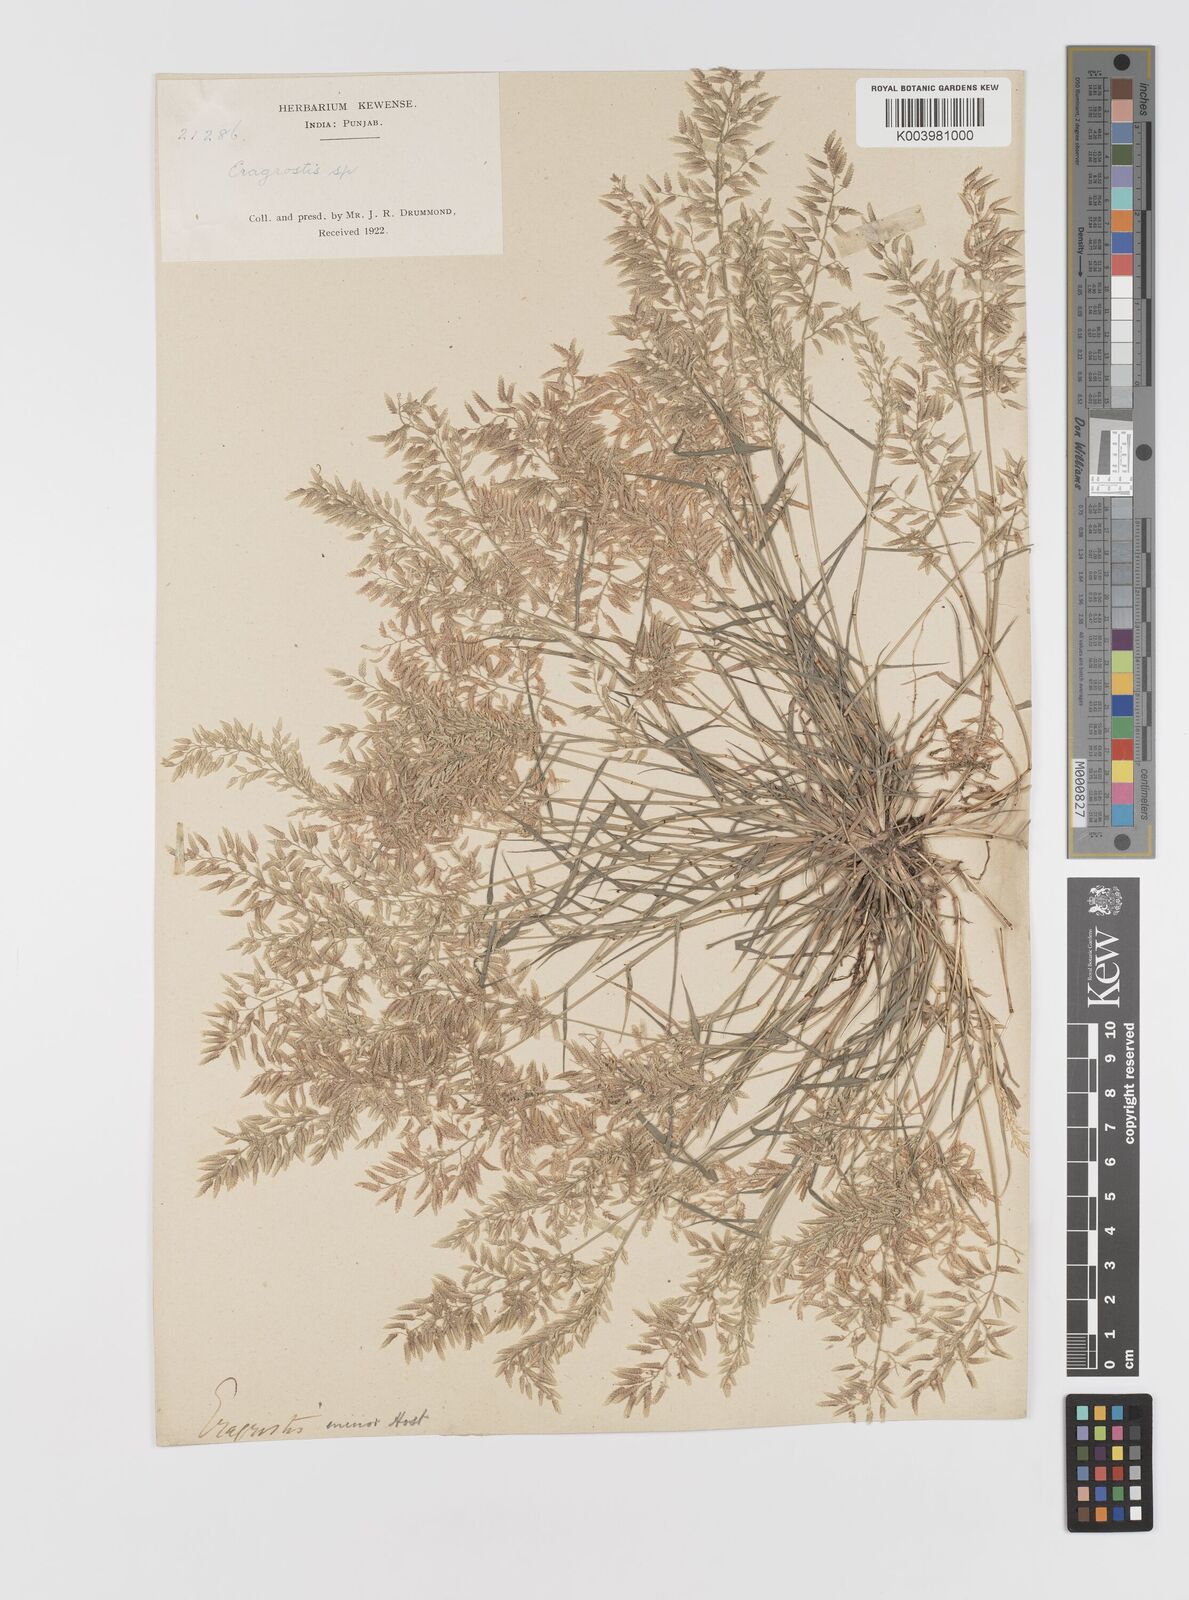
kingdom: Plantae
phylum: Tracheophyta
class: Liliopsida
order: Poales
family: Poaceae
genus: Eragrostis
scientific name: Eragrostis minor
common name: Small love-grass
